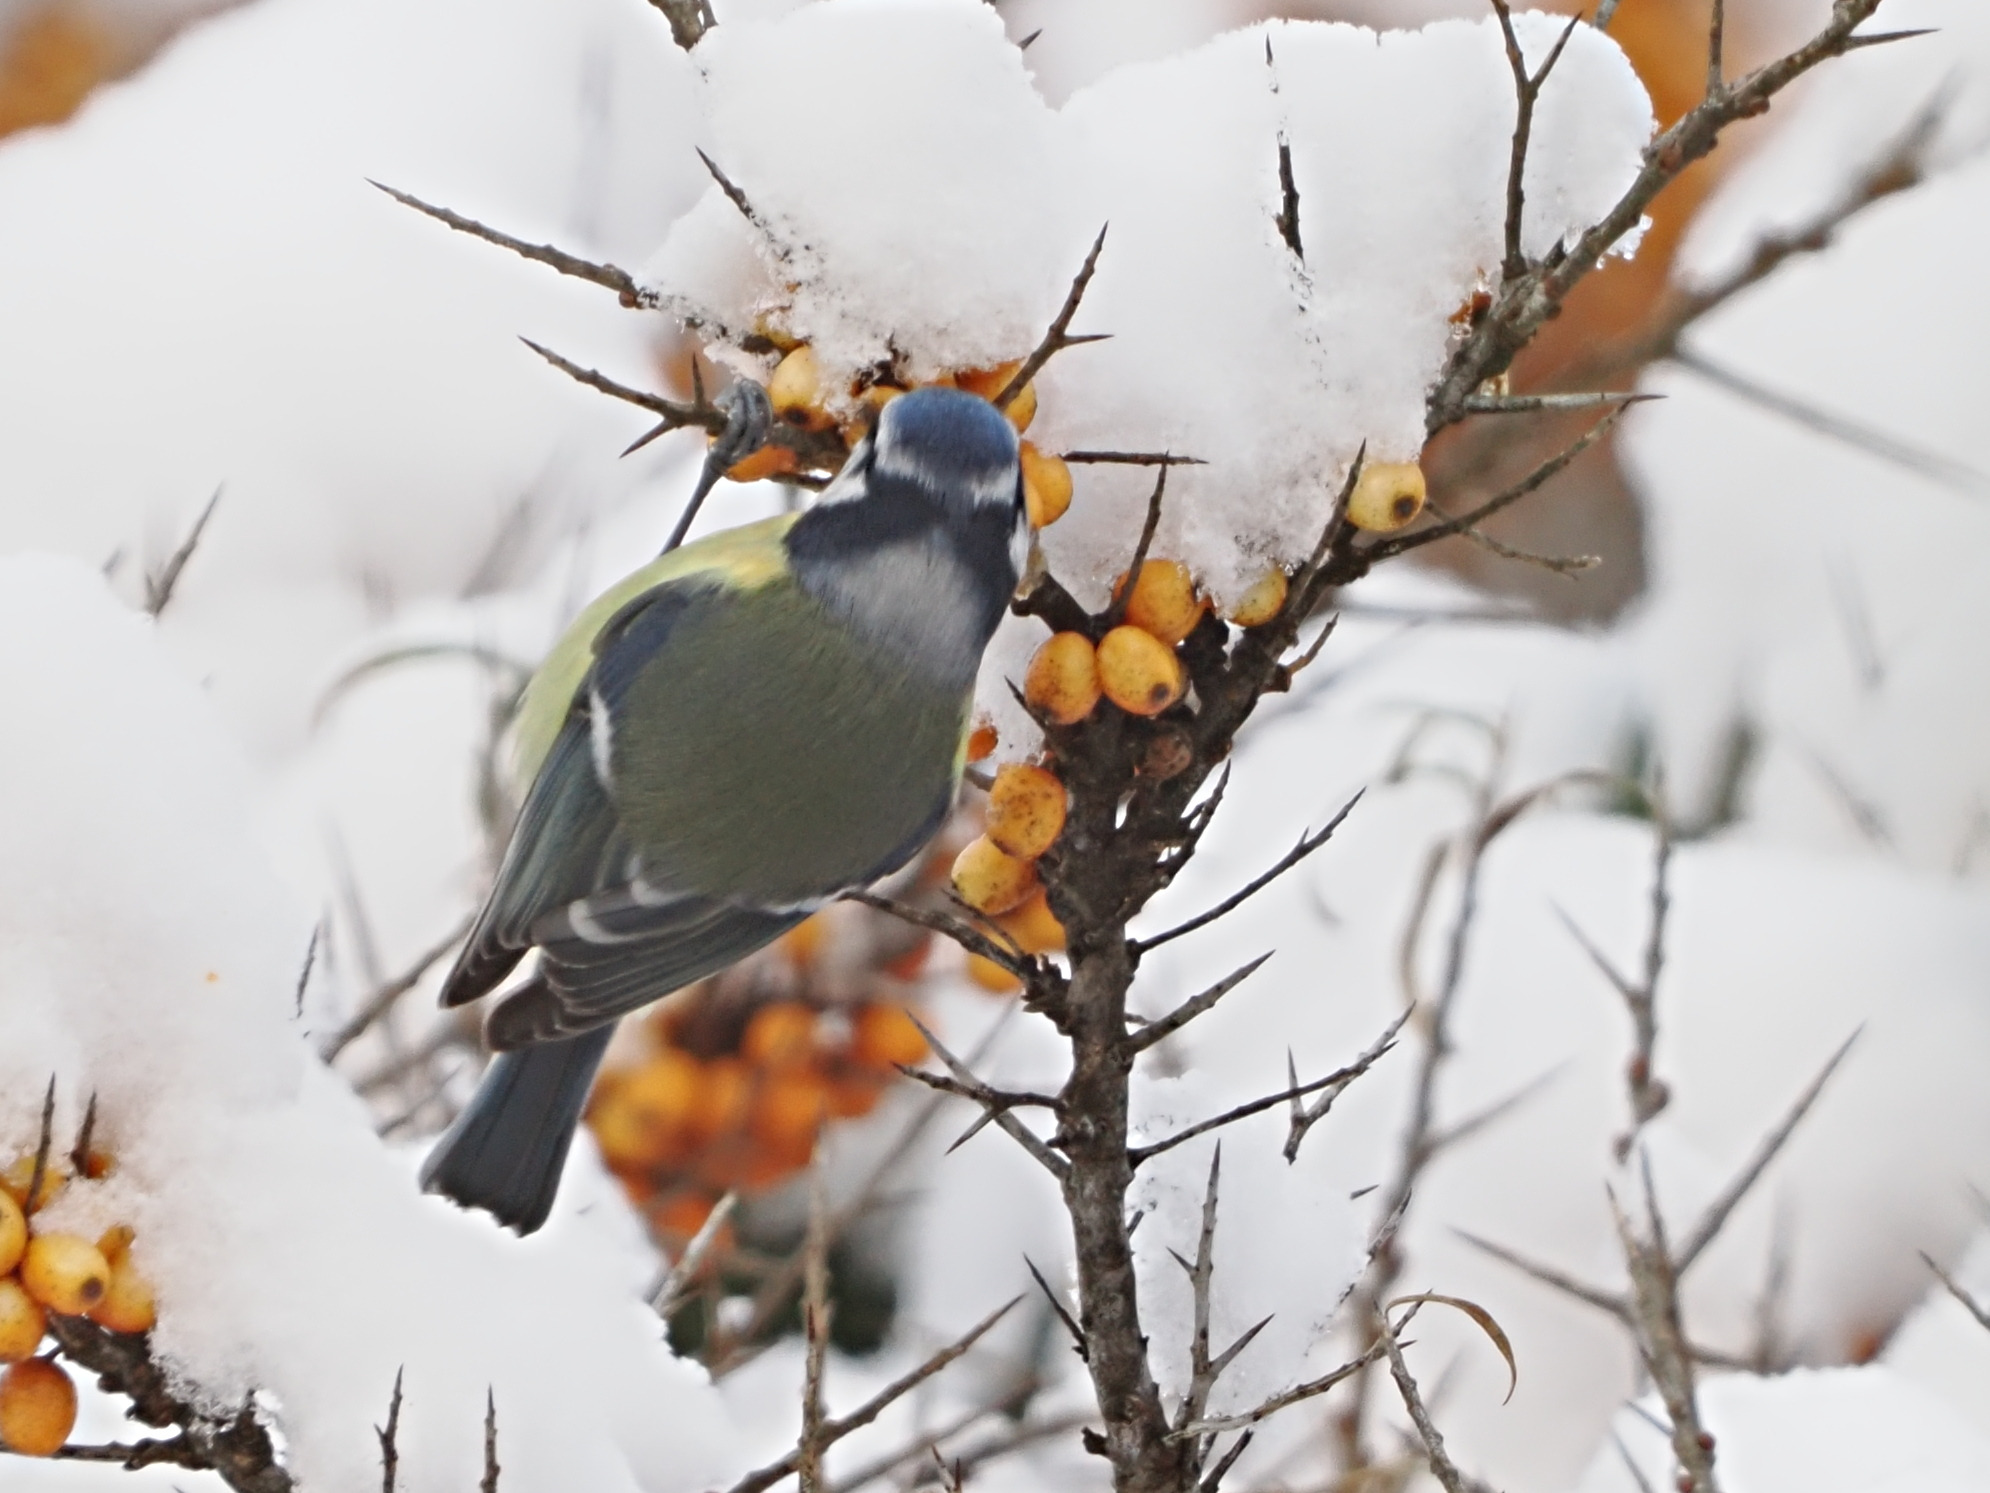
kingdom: Animalia
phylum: Chordata
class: Aves
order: Passeriformes
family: Paridae
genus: Cyanistes
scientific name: Cyanistes caeruleus
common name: Blåmejse
